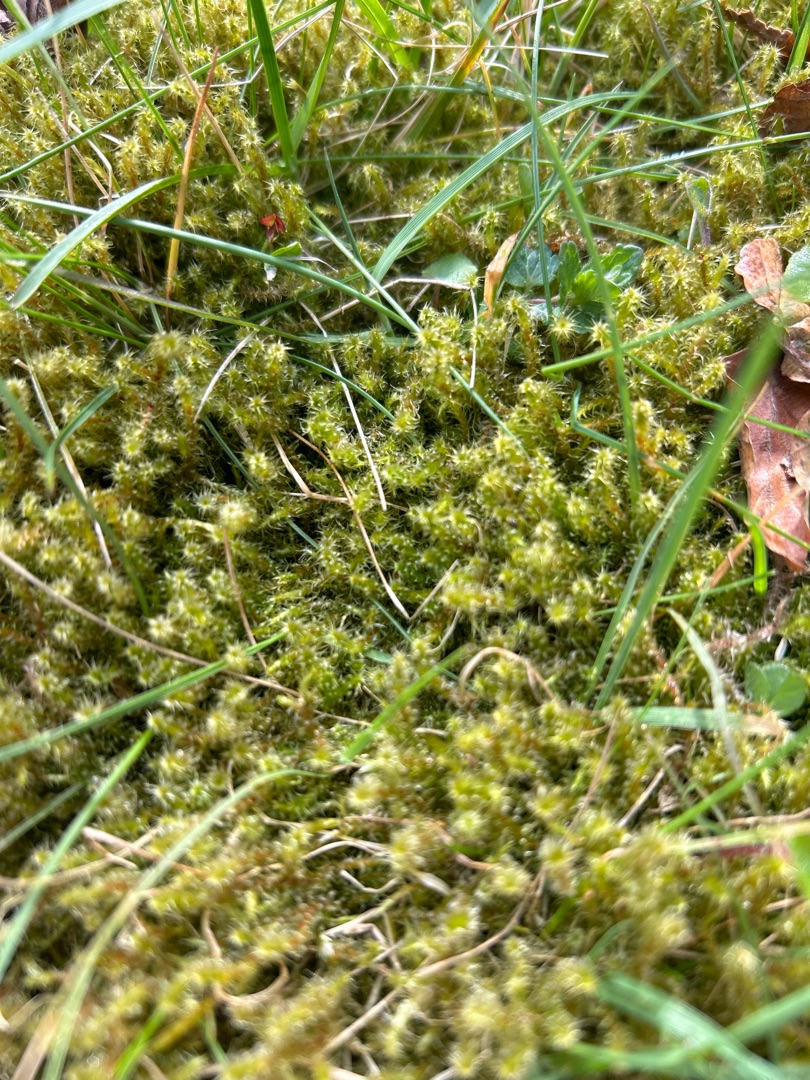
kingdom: Plantae
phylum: Bryophyta
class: Bryopsida
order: Hypnales
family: Hylocomiaceae
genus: Rhytidiadelphus
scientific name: Rhytidiadelphus squarrosus
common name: Plæne-kransemos
